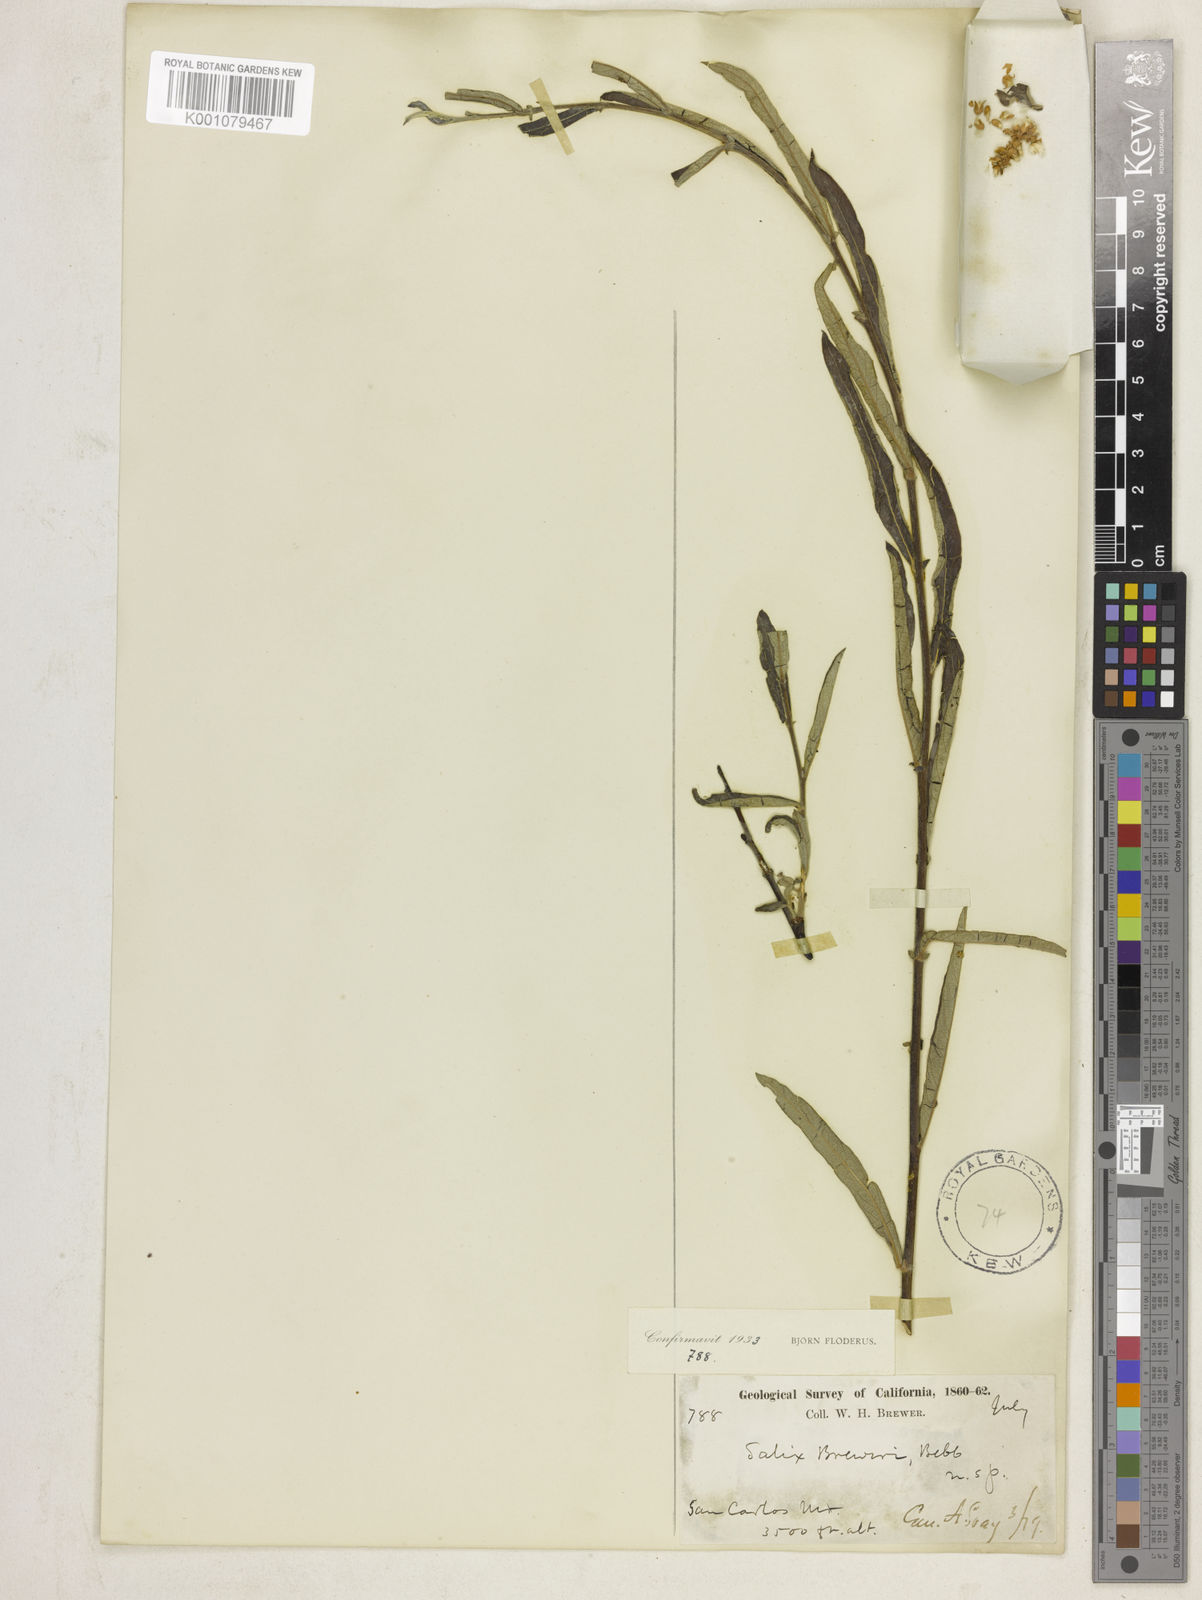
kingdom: Plantae
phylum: Tracheophyta
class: Magnoliopsida
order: Malpighiales
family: Salicaceae
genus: Salix
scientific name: Salix breweri
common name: Brewer’s willow
